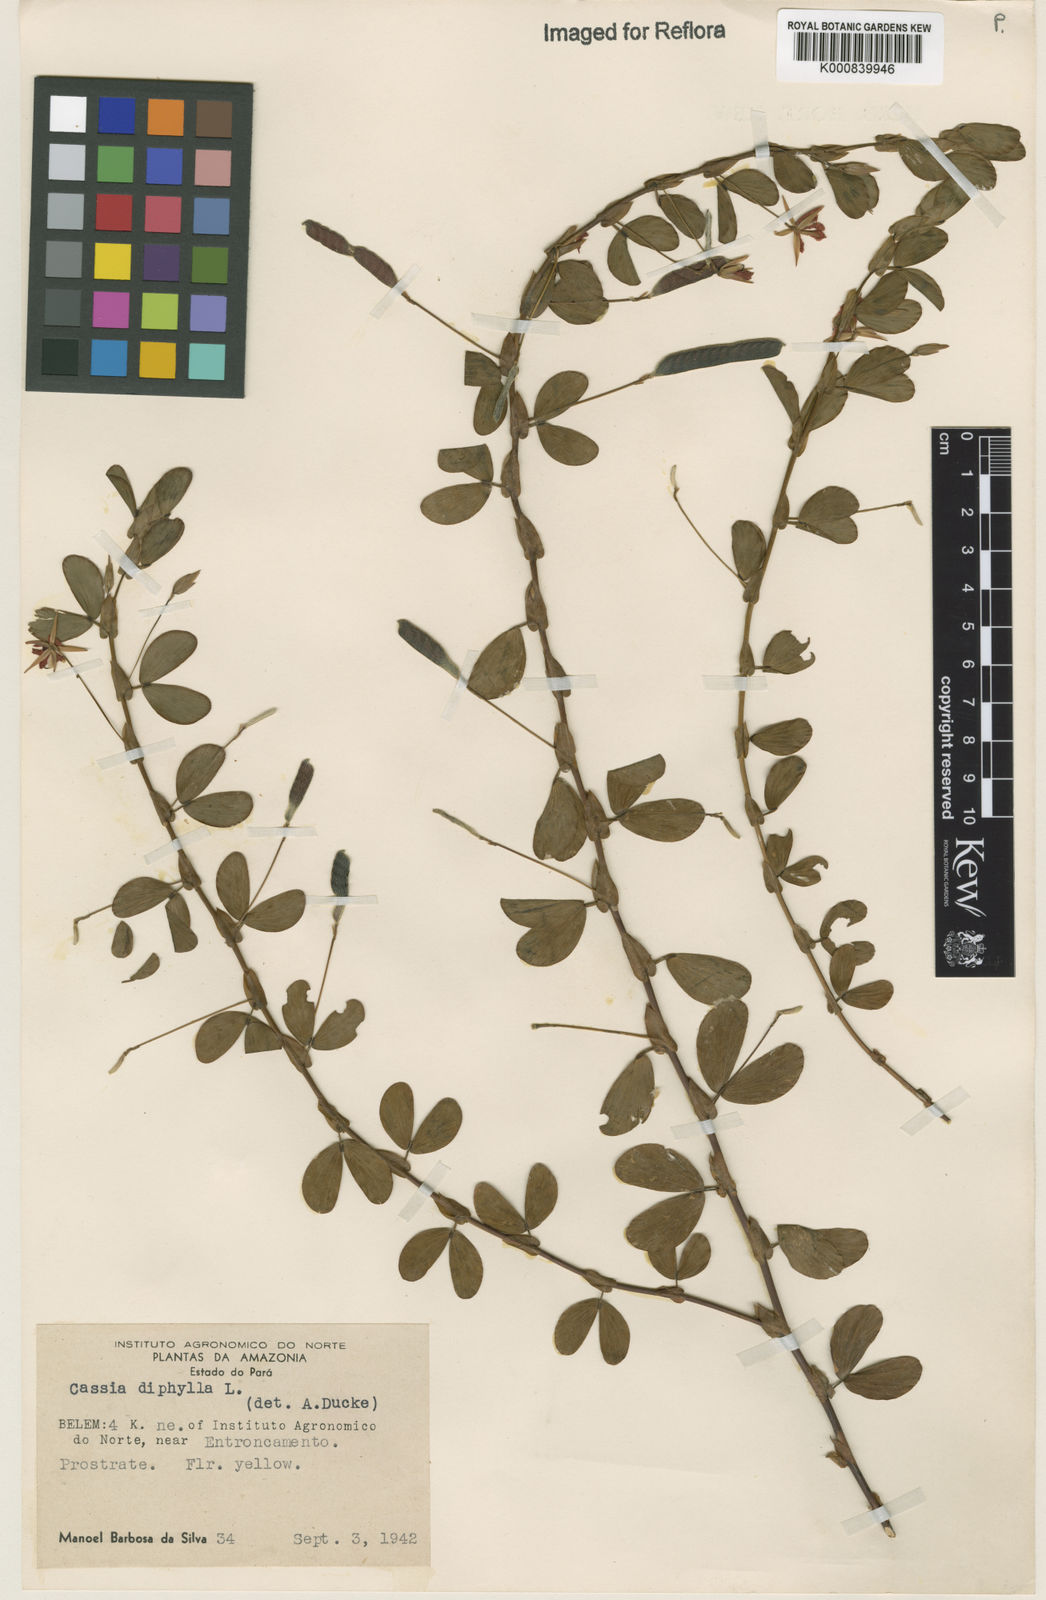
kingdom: Plantae
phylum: Tracheophyta
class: Magnoliopsida
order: Fabales
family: Fabaceae
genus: Chamaecrista
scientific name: Chamaecrista diphylla
